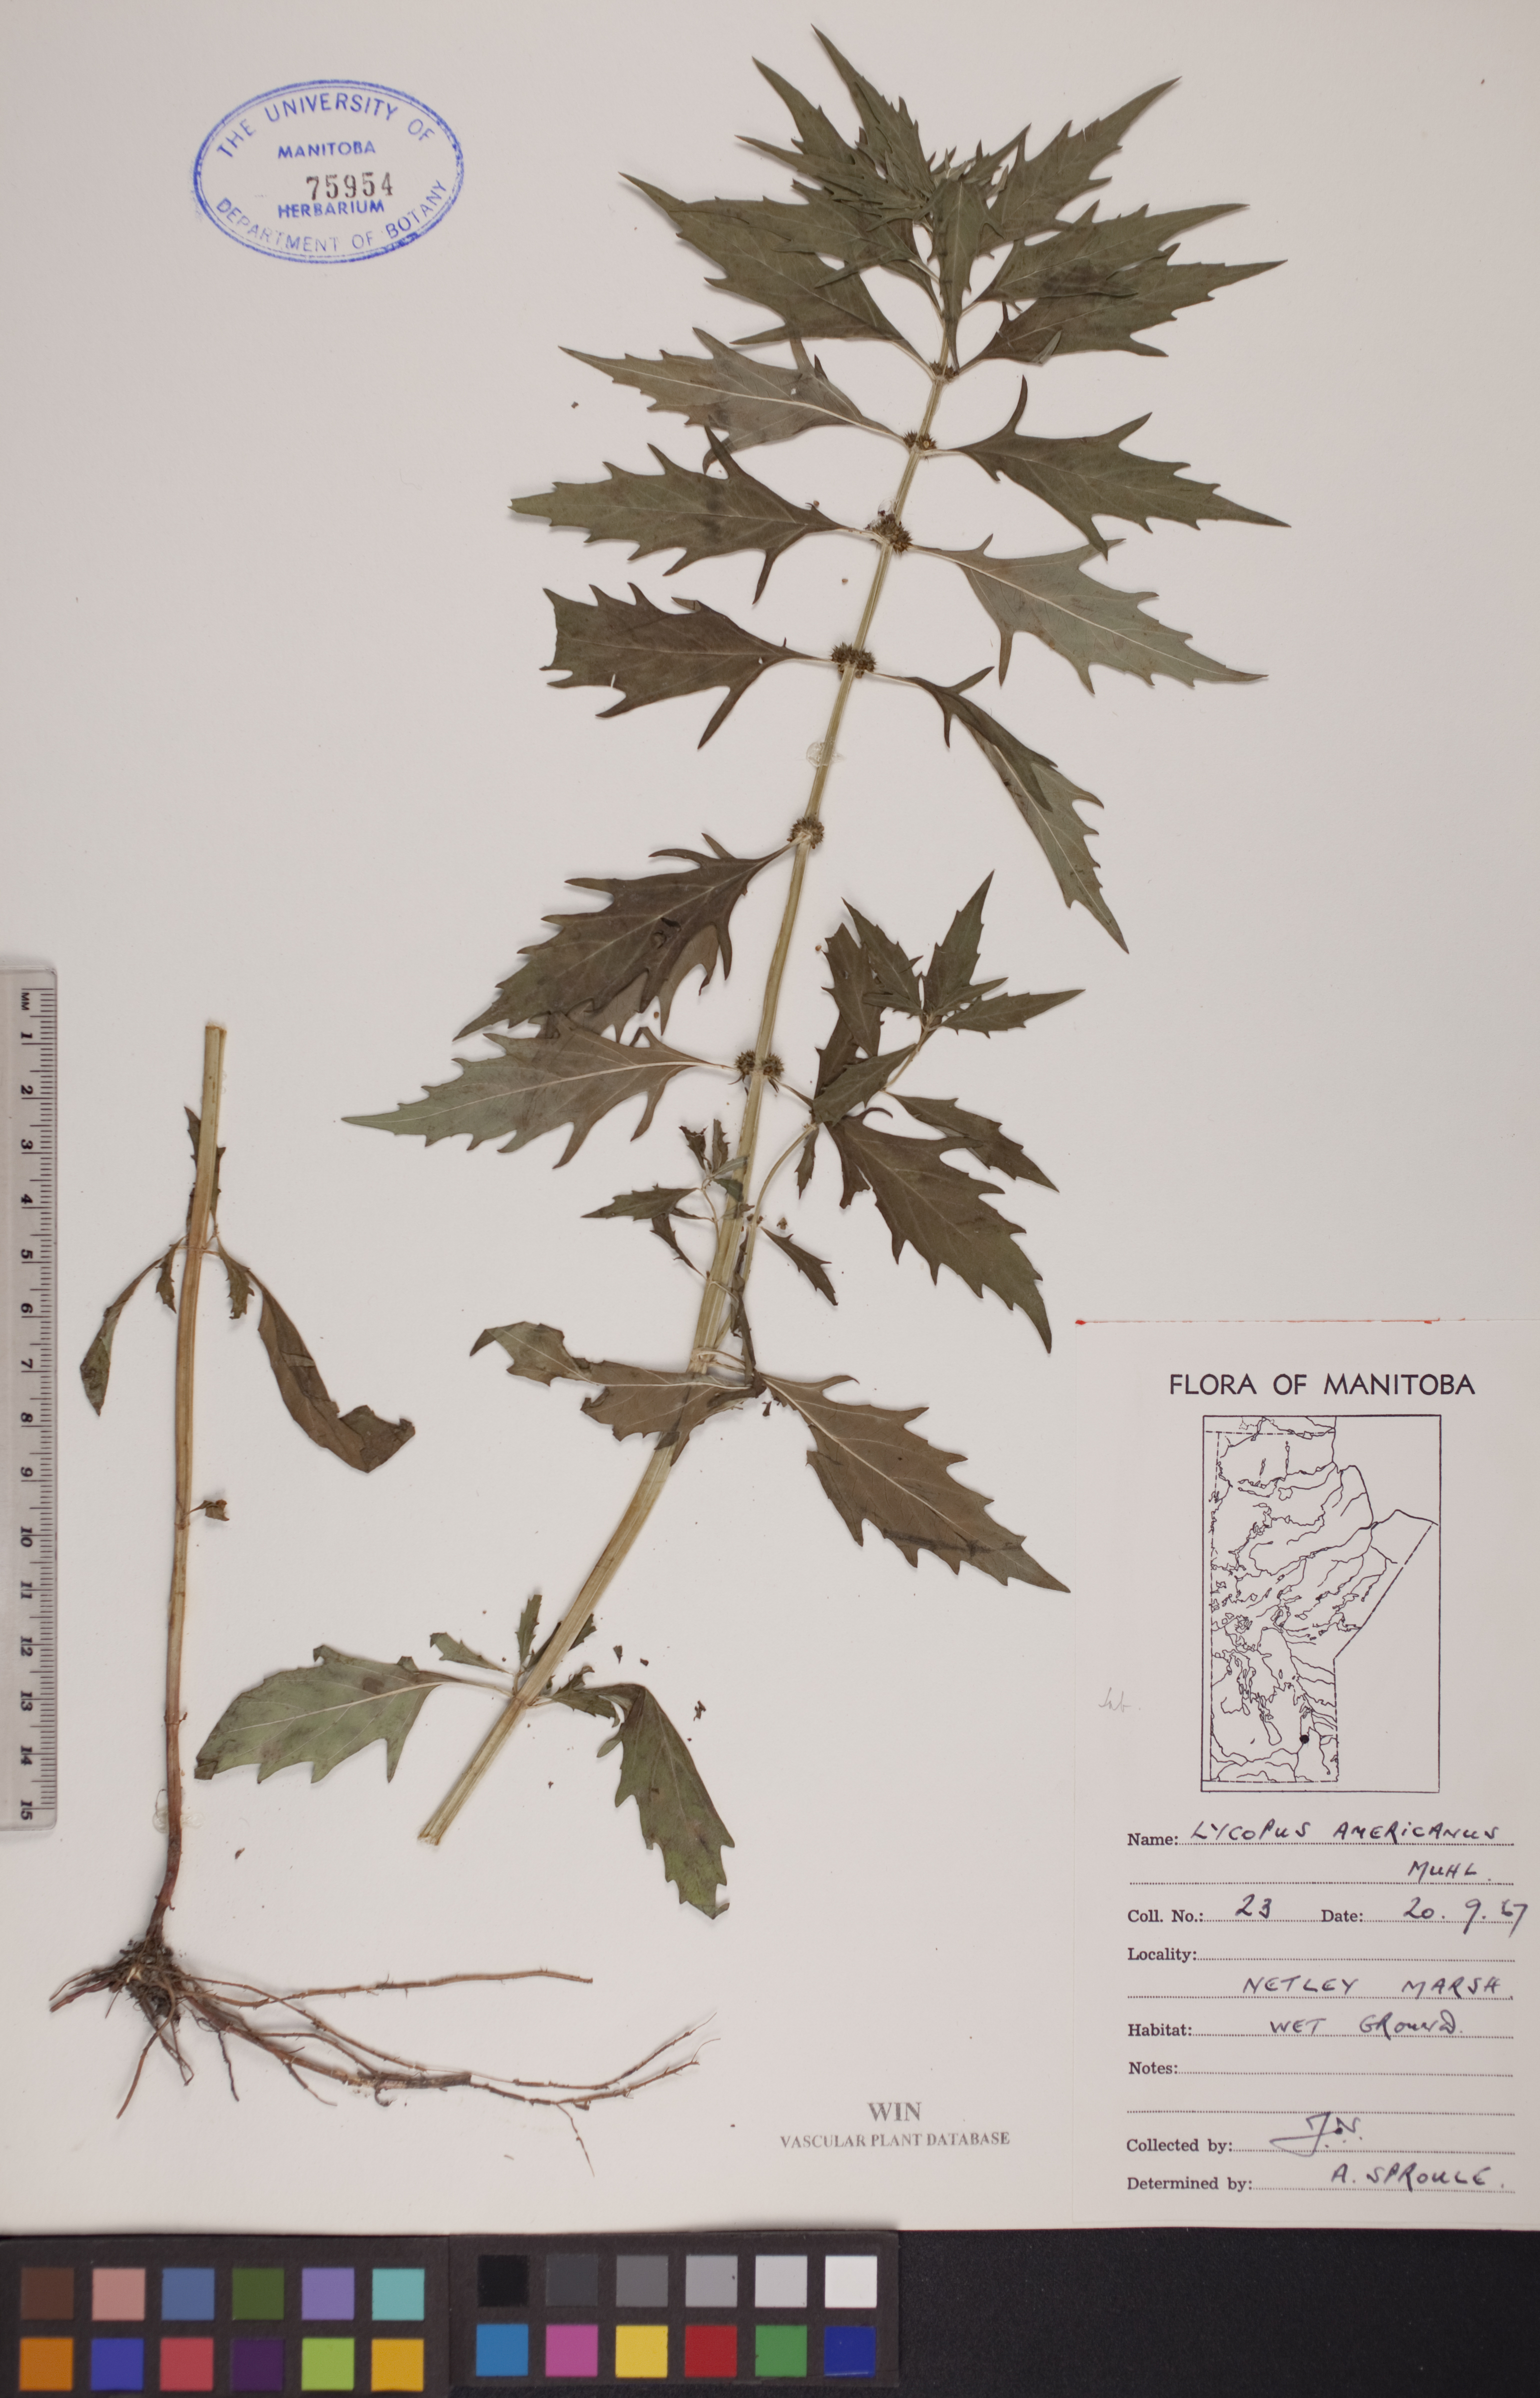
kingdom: Plantae
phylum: Tracheophyta
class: Magnoliopsida
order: Lamiales
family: Lamiaceae
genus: Lycopus
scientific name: Lycopus americanus
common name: American bugleweed
